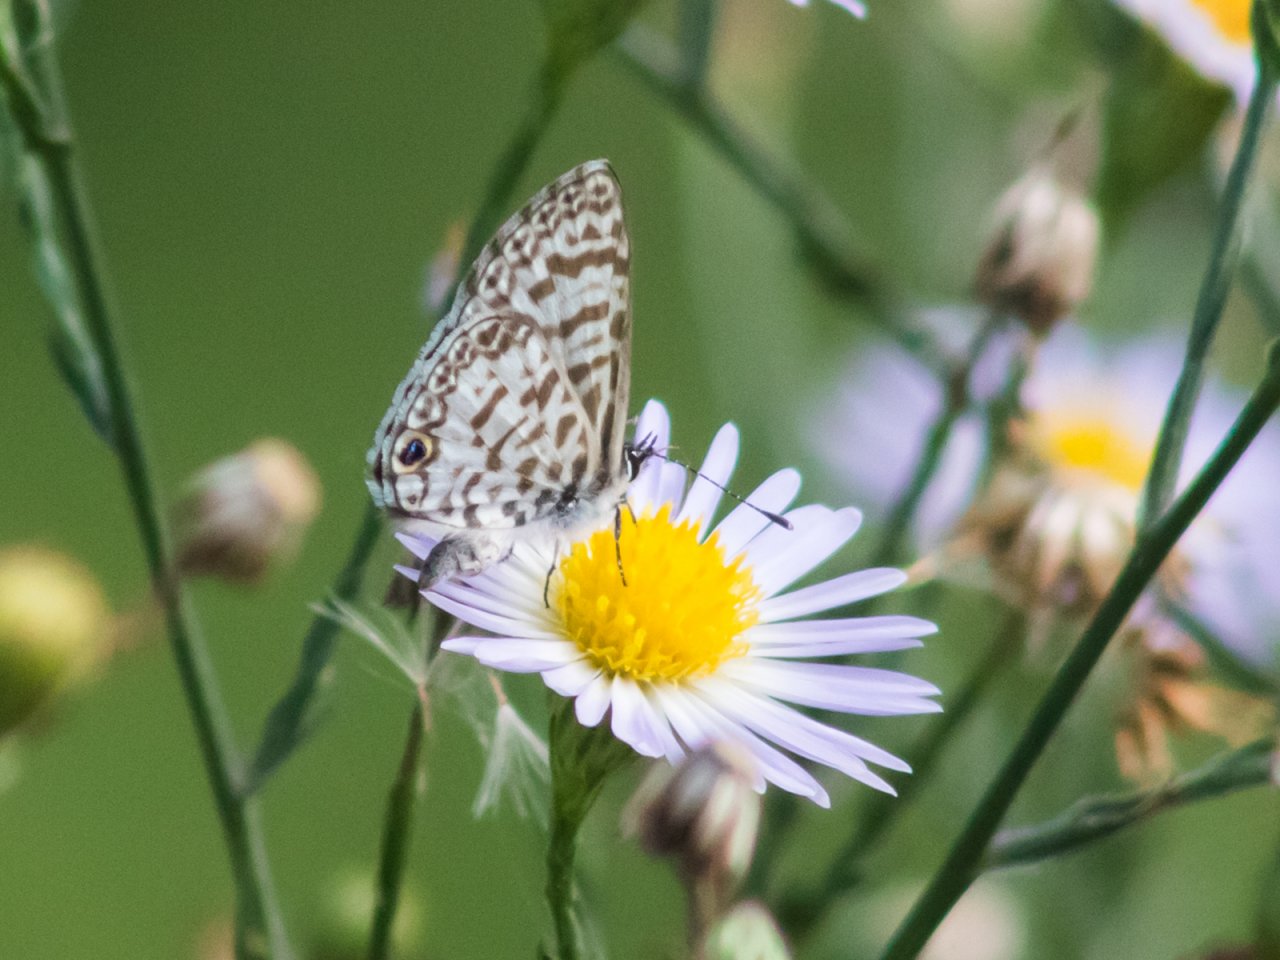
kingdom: Animalia
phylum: Arthropoda
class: Insecta
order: Lepidoptera
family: Lycaenidae
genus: Leptotes
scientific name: Leptotes cassius
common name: Cassius Blue
